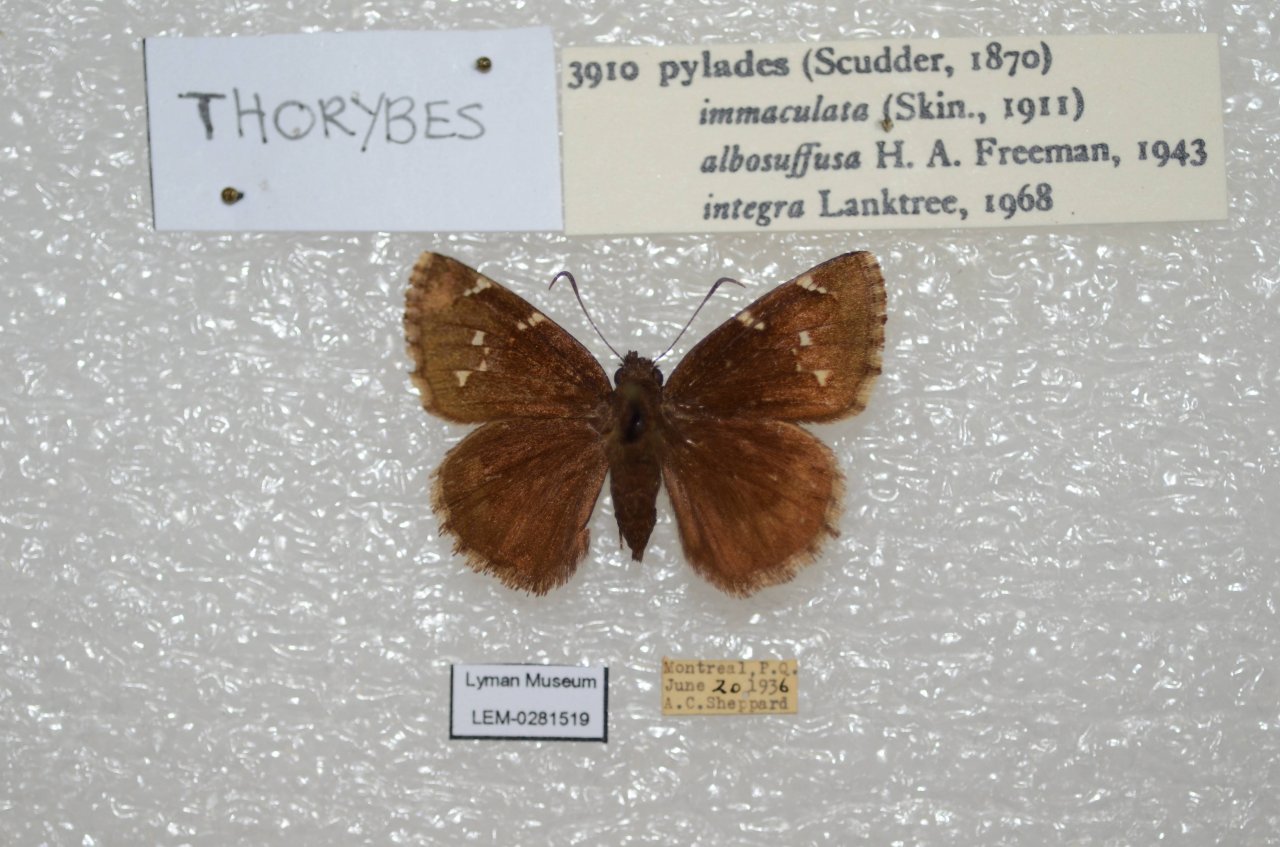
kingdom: Animalia
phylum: Arthropoda
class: Insecta
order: Lepidoptera
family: Hesperiidae
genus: Autochton
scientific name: Autochton
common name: Northern Cloudywing
